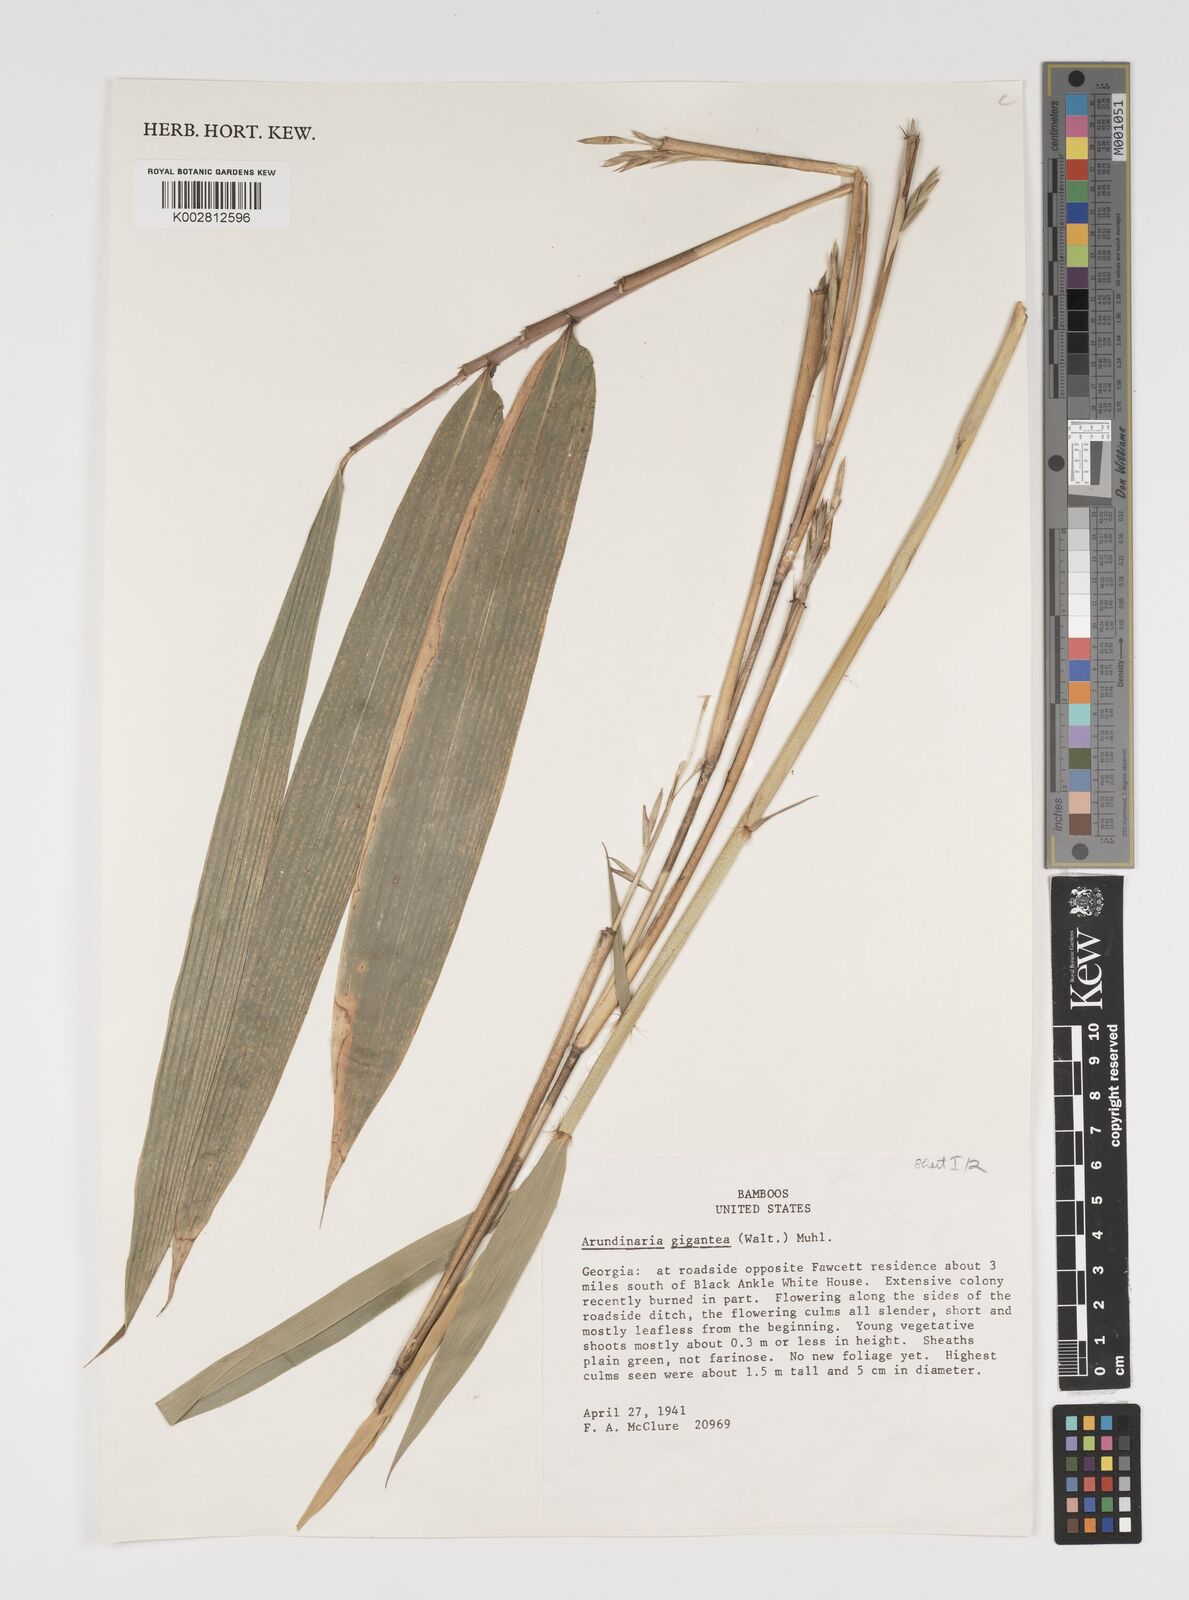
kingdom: Plantae
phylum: Tracheophyta
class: Liliopsida
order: Poales
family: Poaceae
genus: Arundinaria
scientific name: Arundinaria gigantea
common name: Giant cane
